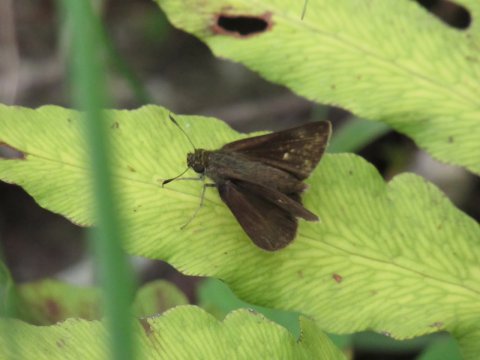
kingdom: Animalia
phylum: Arthropoda
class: Insecta
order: Lepidoptera
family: Hesperiidae
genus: Euphyes
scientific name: Euphyes vestris
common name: Dun Skipper
